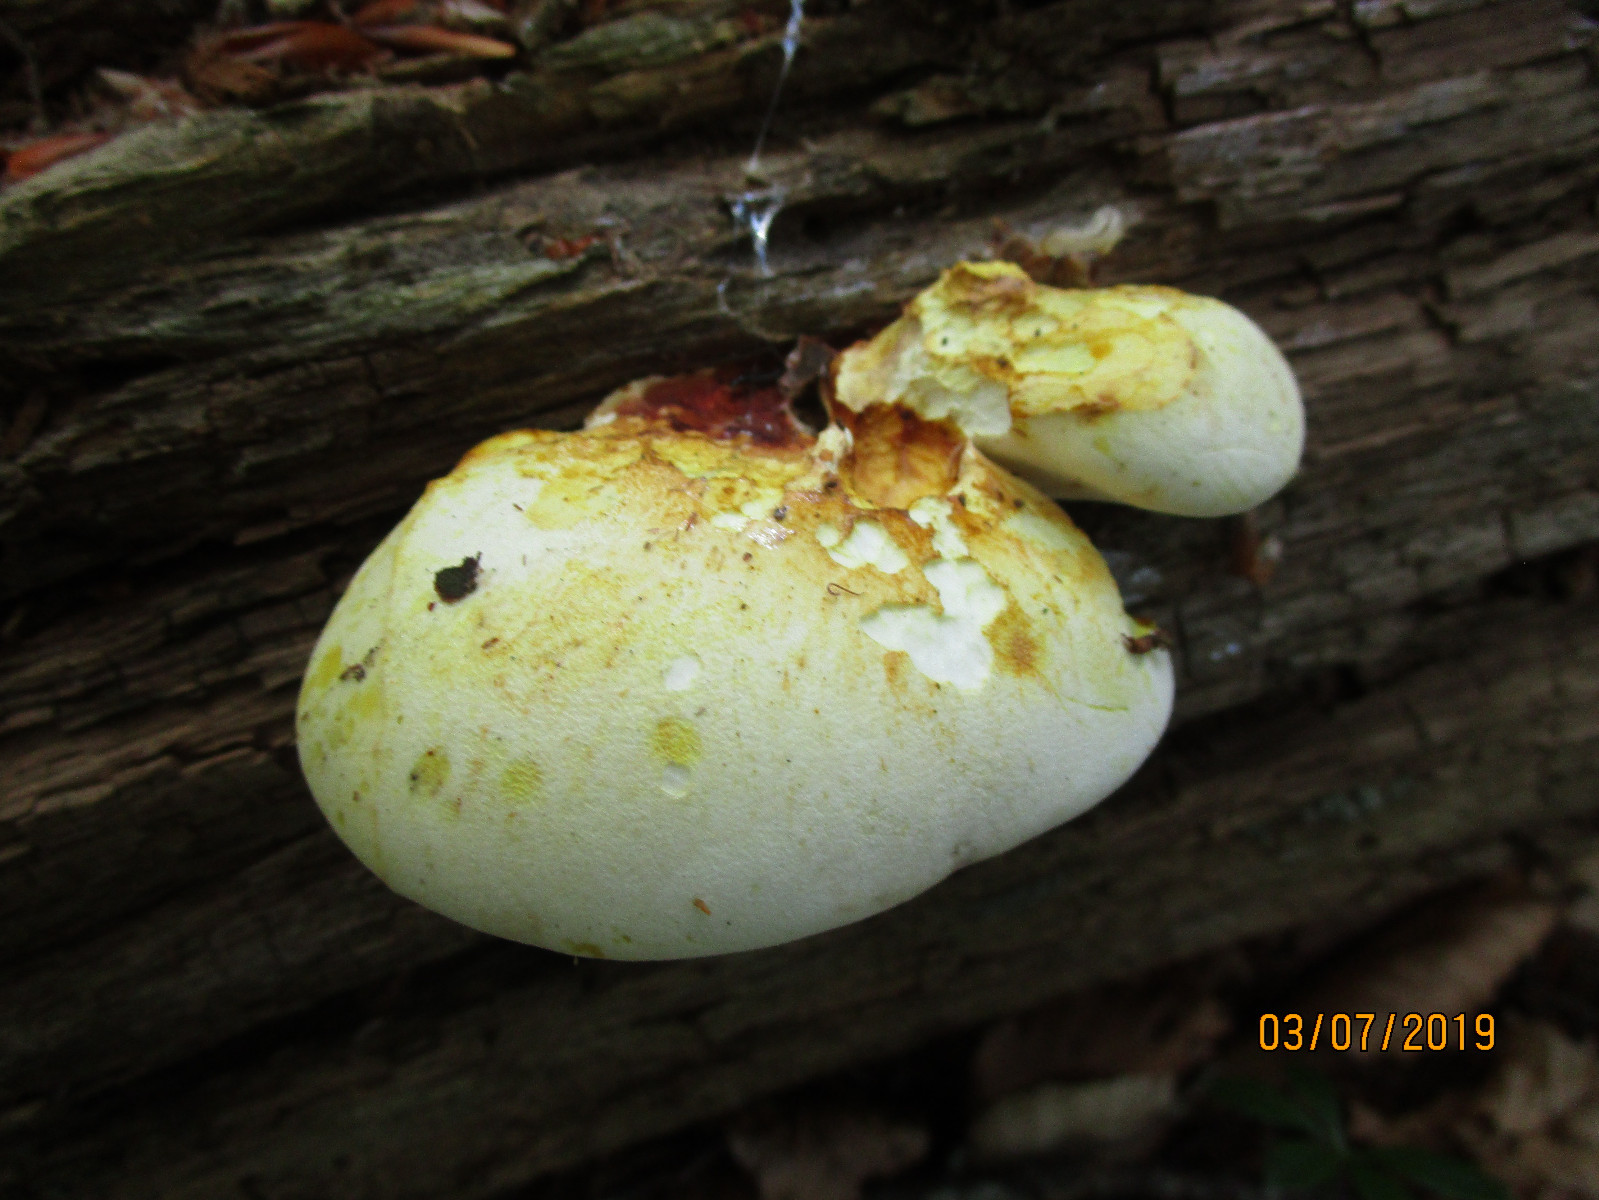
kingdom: Fungi
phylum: Basidiomycota
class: Agaricomycetes
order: Polyporales
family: Fomitopsidaceae
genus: Buglossoporus
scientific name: Buglossoporus quercinus
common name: egetunge
